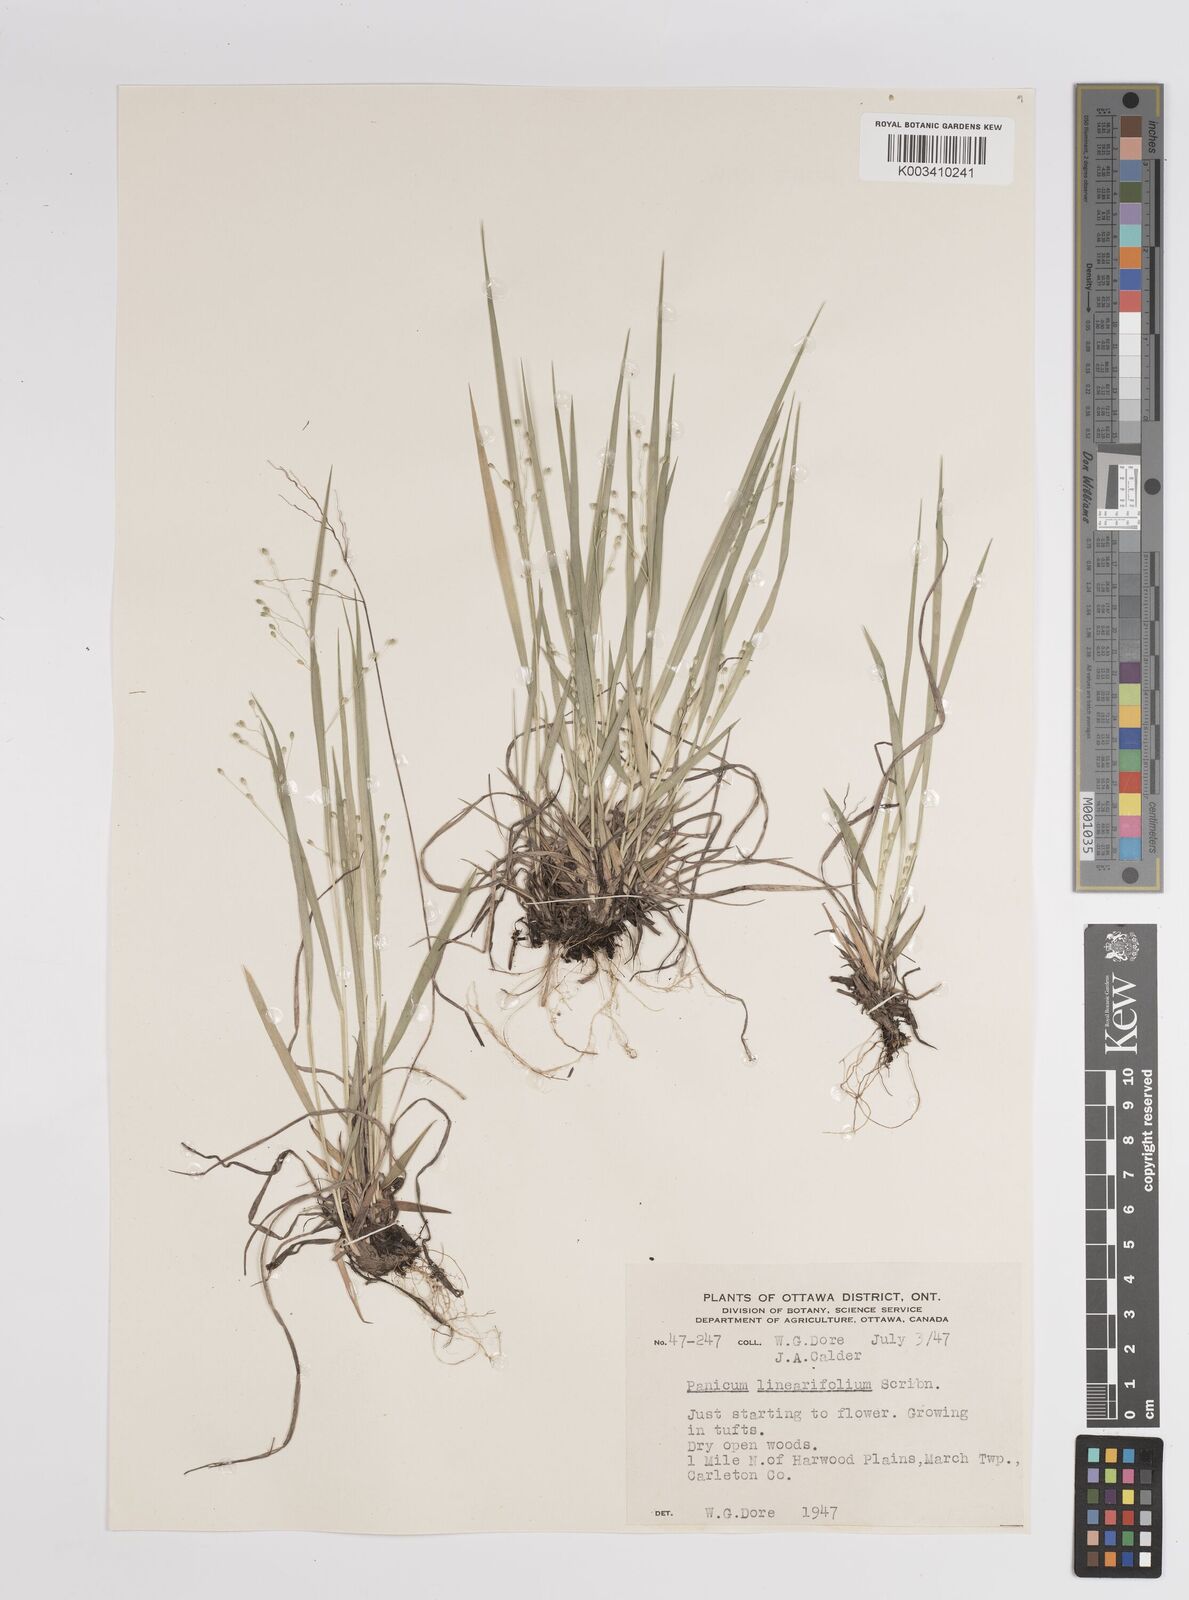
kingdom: Plantae
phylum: Tracheophyta
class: Liliopsida
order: Poales
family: Poaceae
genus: Dichanthelium
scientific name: Dichanthelium linearifolium
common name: Linear-leaved panicgrass
